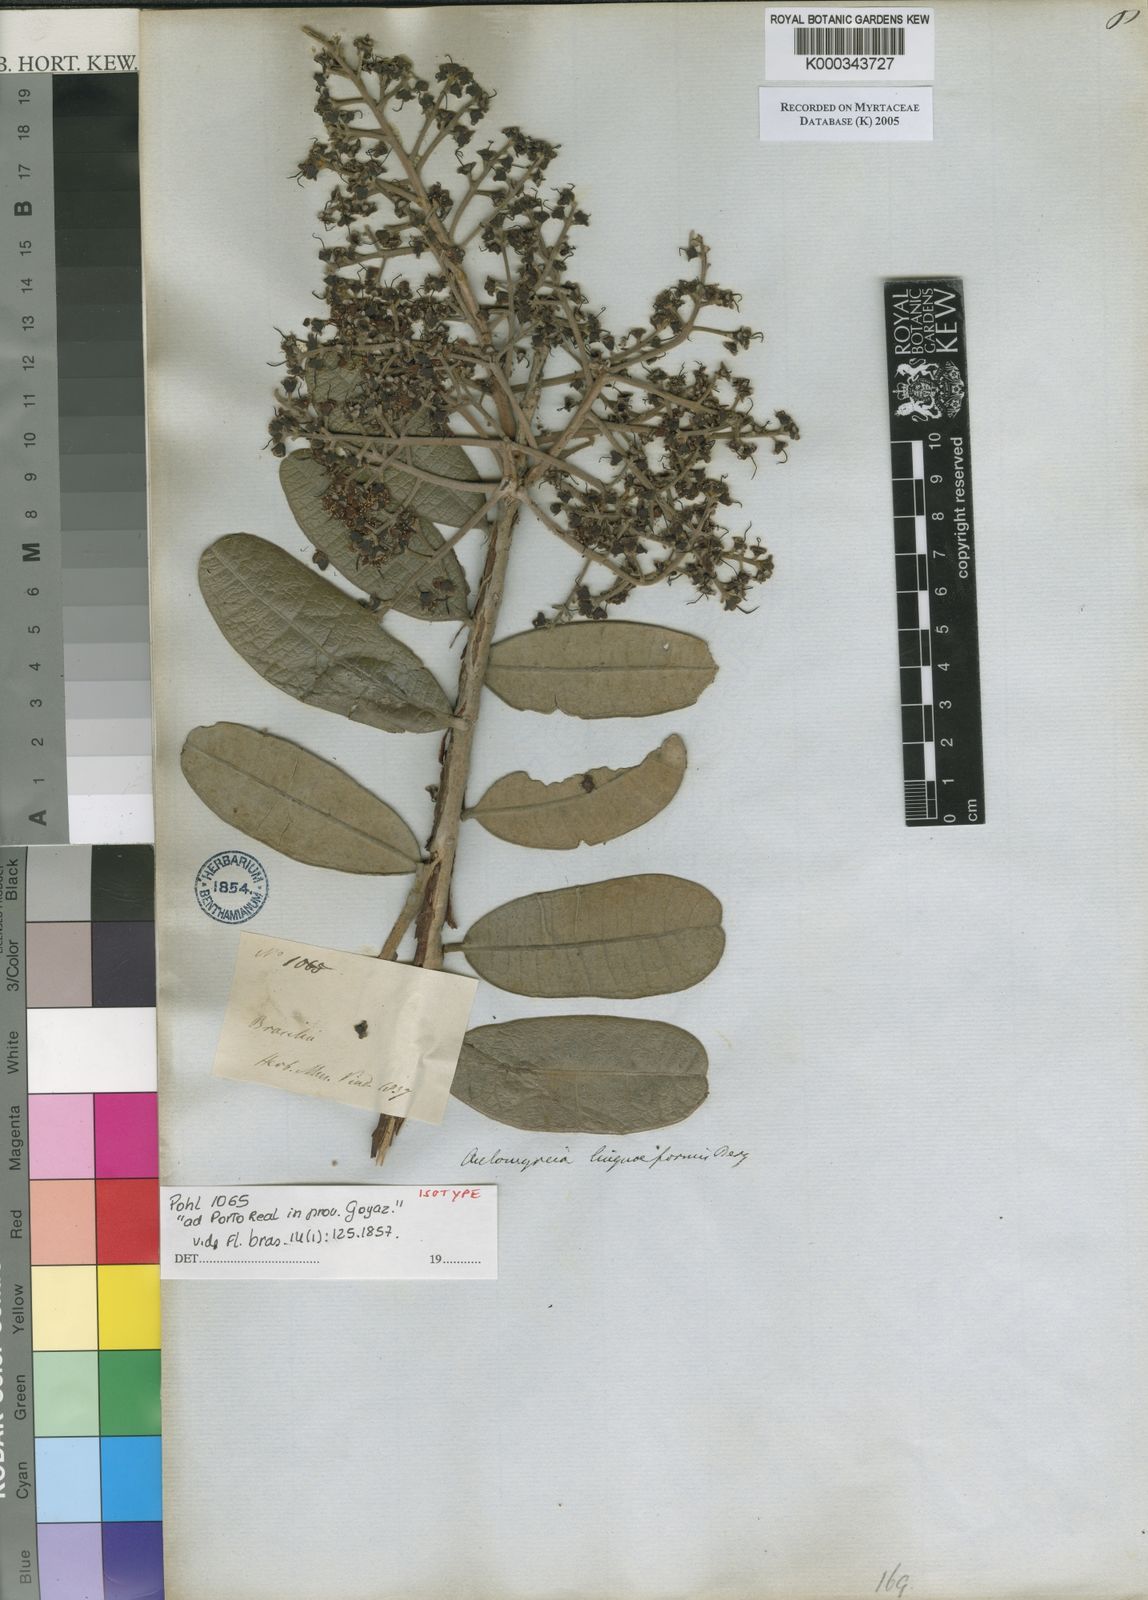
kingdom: Plantae
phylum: Tracheophyta
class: Magnoliopsida
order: Myrtales
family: Myrtaceae
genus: Myrcia
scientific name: Myrcia vestita
